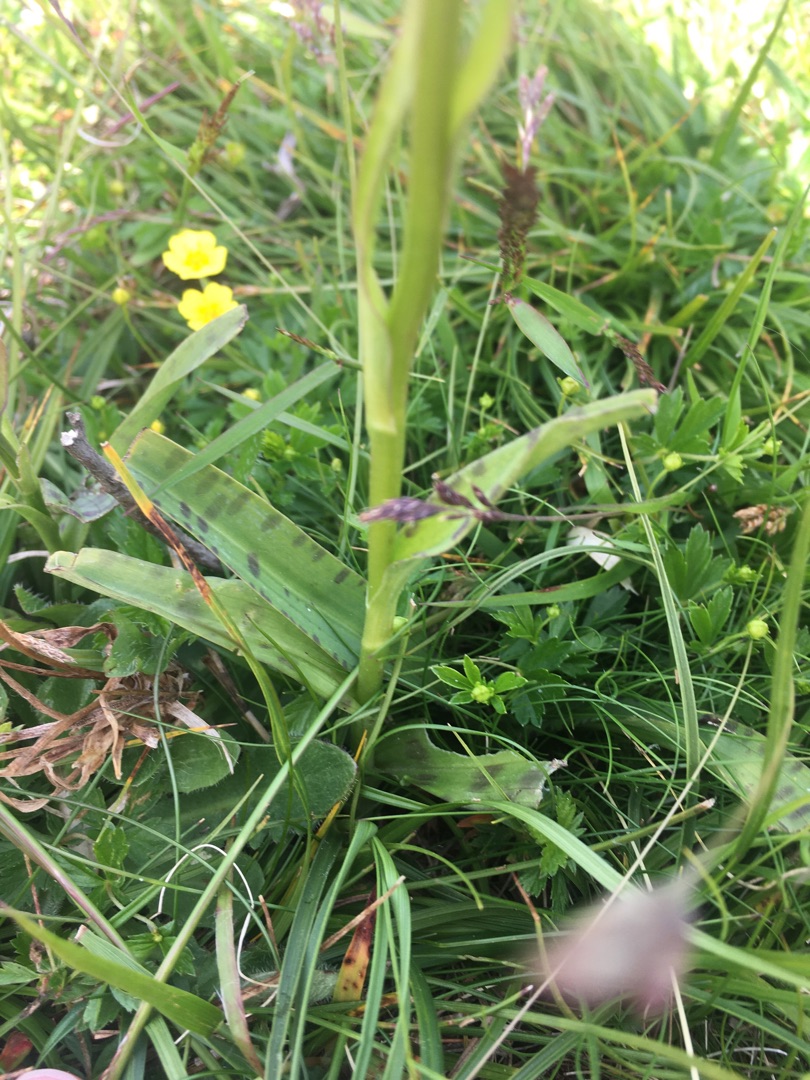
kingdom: Plantae
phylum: Tracheophyta
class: Liliopsida
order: Asparagales
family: Orchidaceae
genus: Dactylorhiza
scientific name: Dactylorhiza maculata
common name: Plettet gøgeurt
